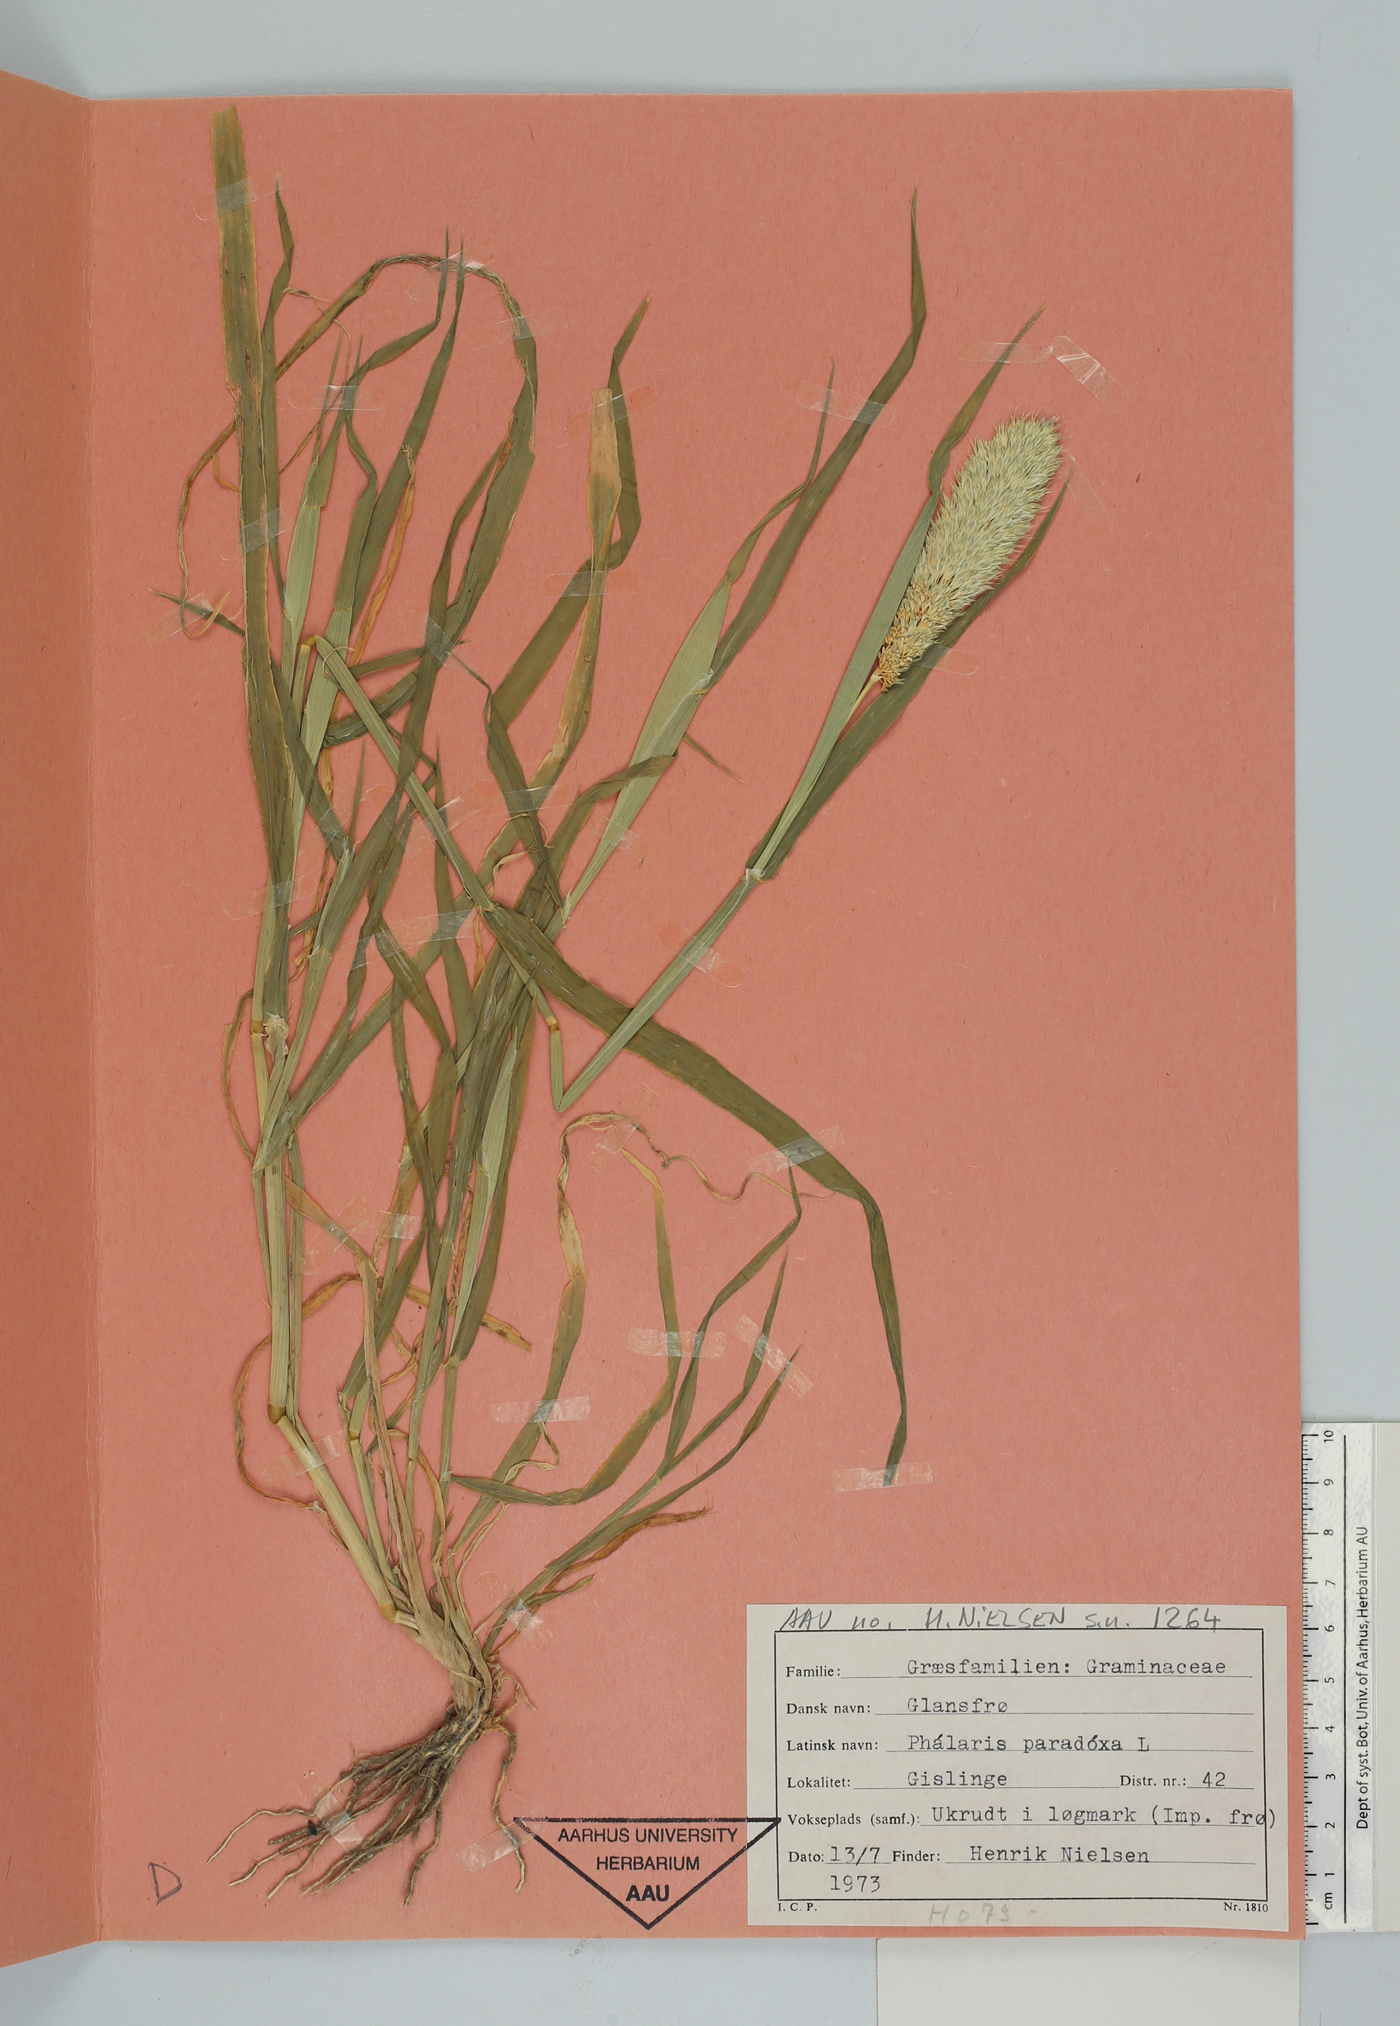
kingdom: Plantae
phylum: Tracheophyta
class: Liliopsida
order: Poales
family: Poaceae
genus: Phalaris
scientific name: Phalaris paradoxa
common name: Awned canary-grass
